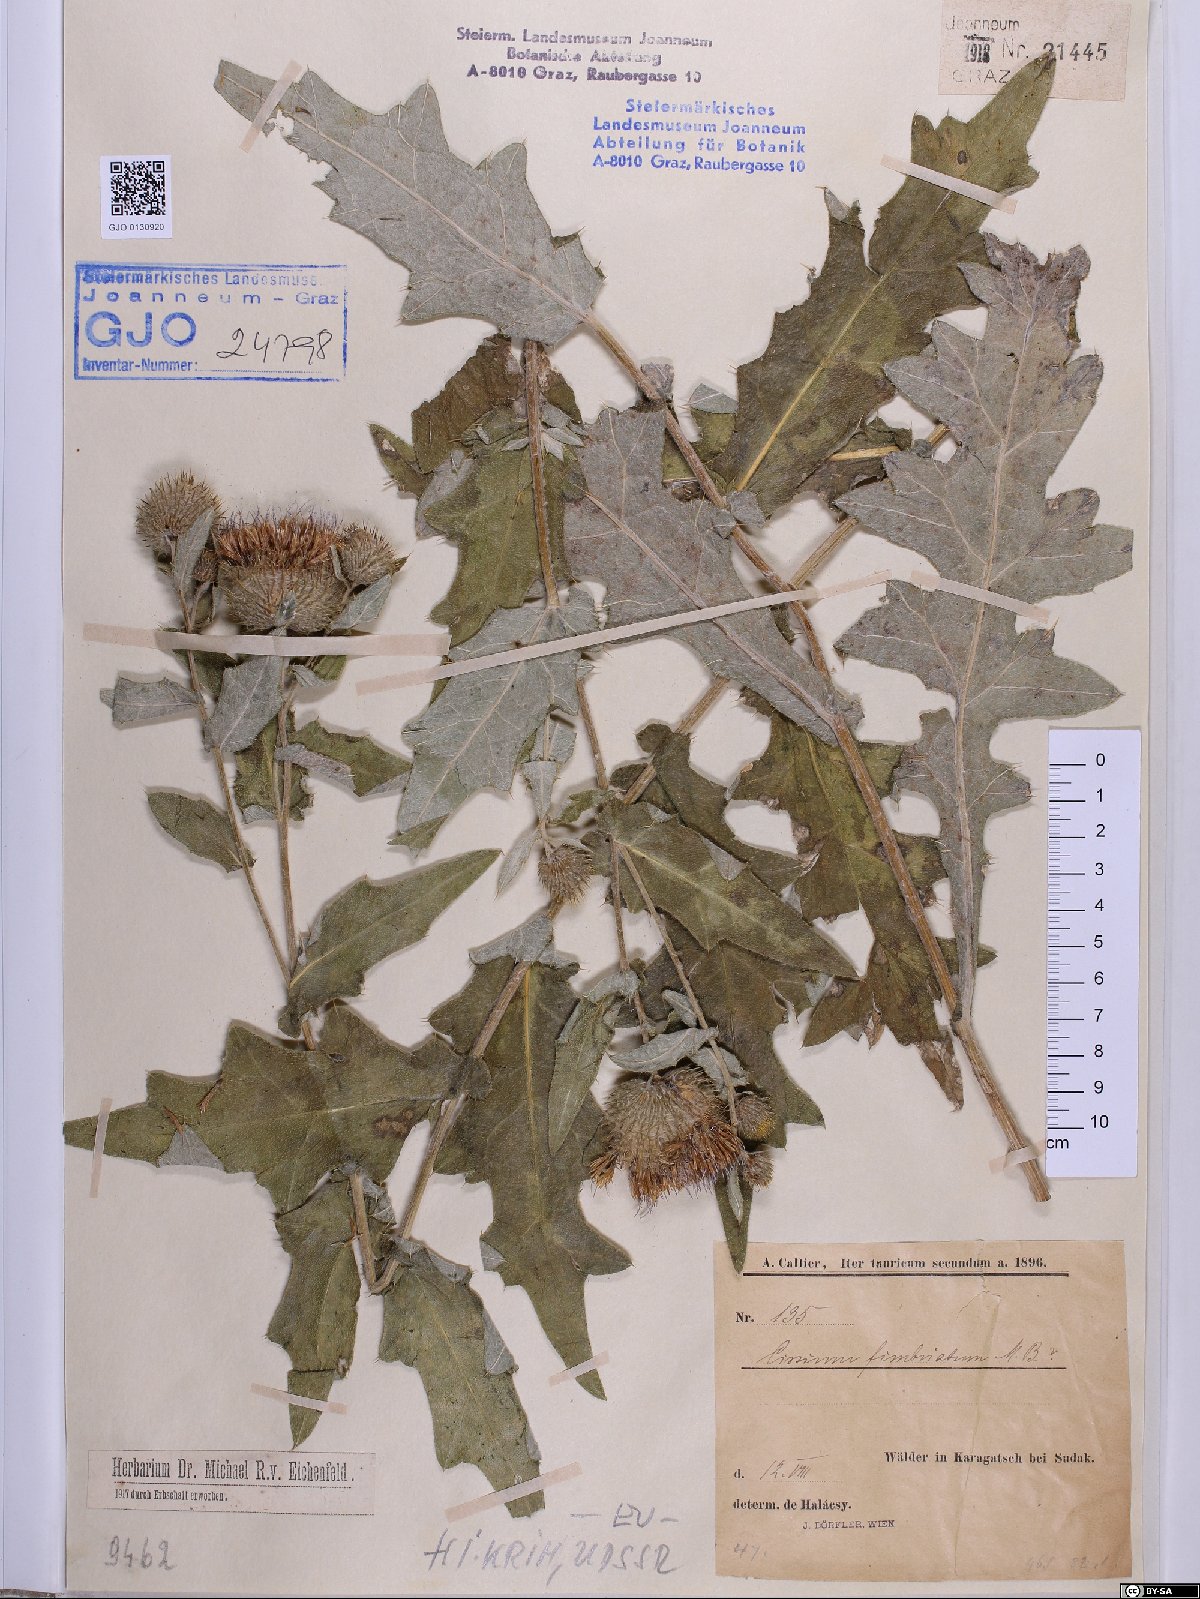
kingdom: Plantae
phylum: Tracheophyta
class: Magnoliopsida
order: Asterales
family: Asteraceae
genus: Lophiolepis
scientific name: Lophiolepis ossetica
